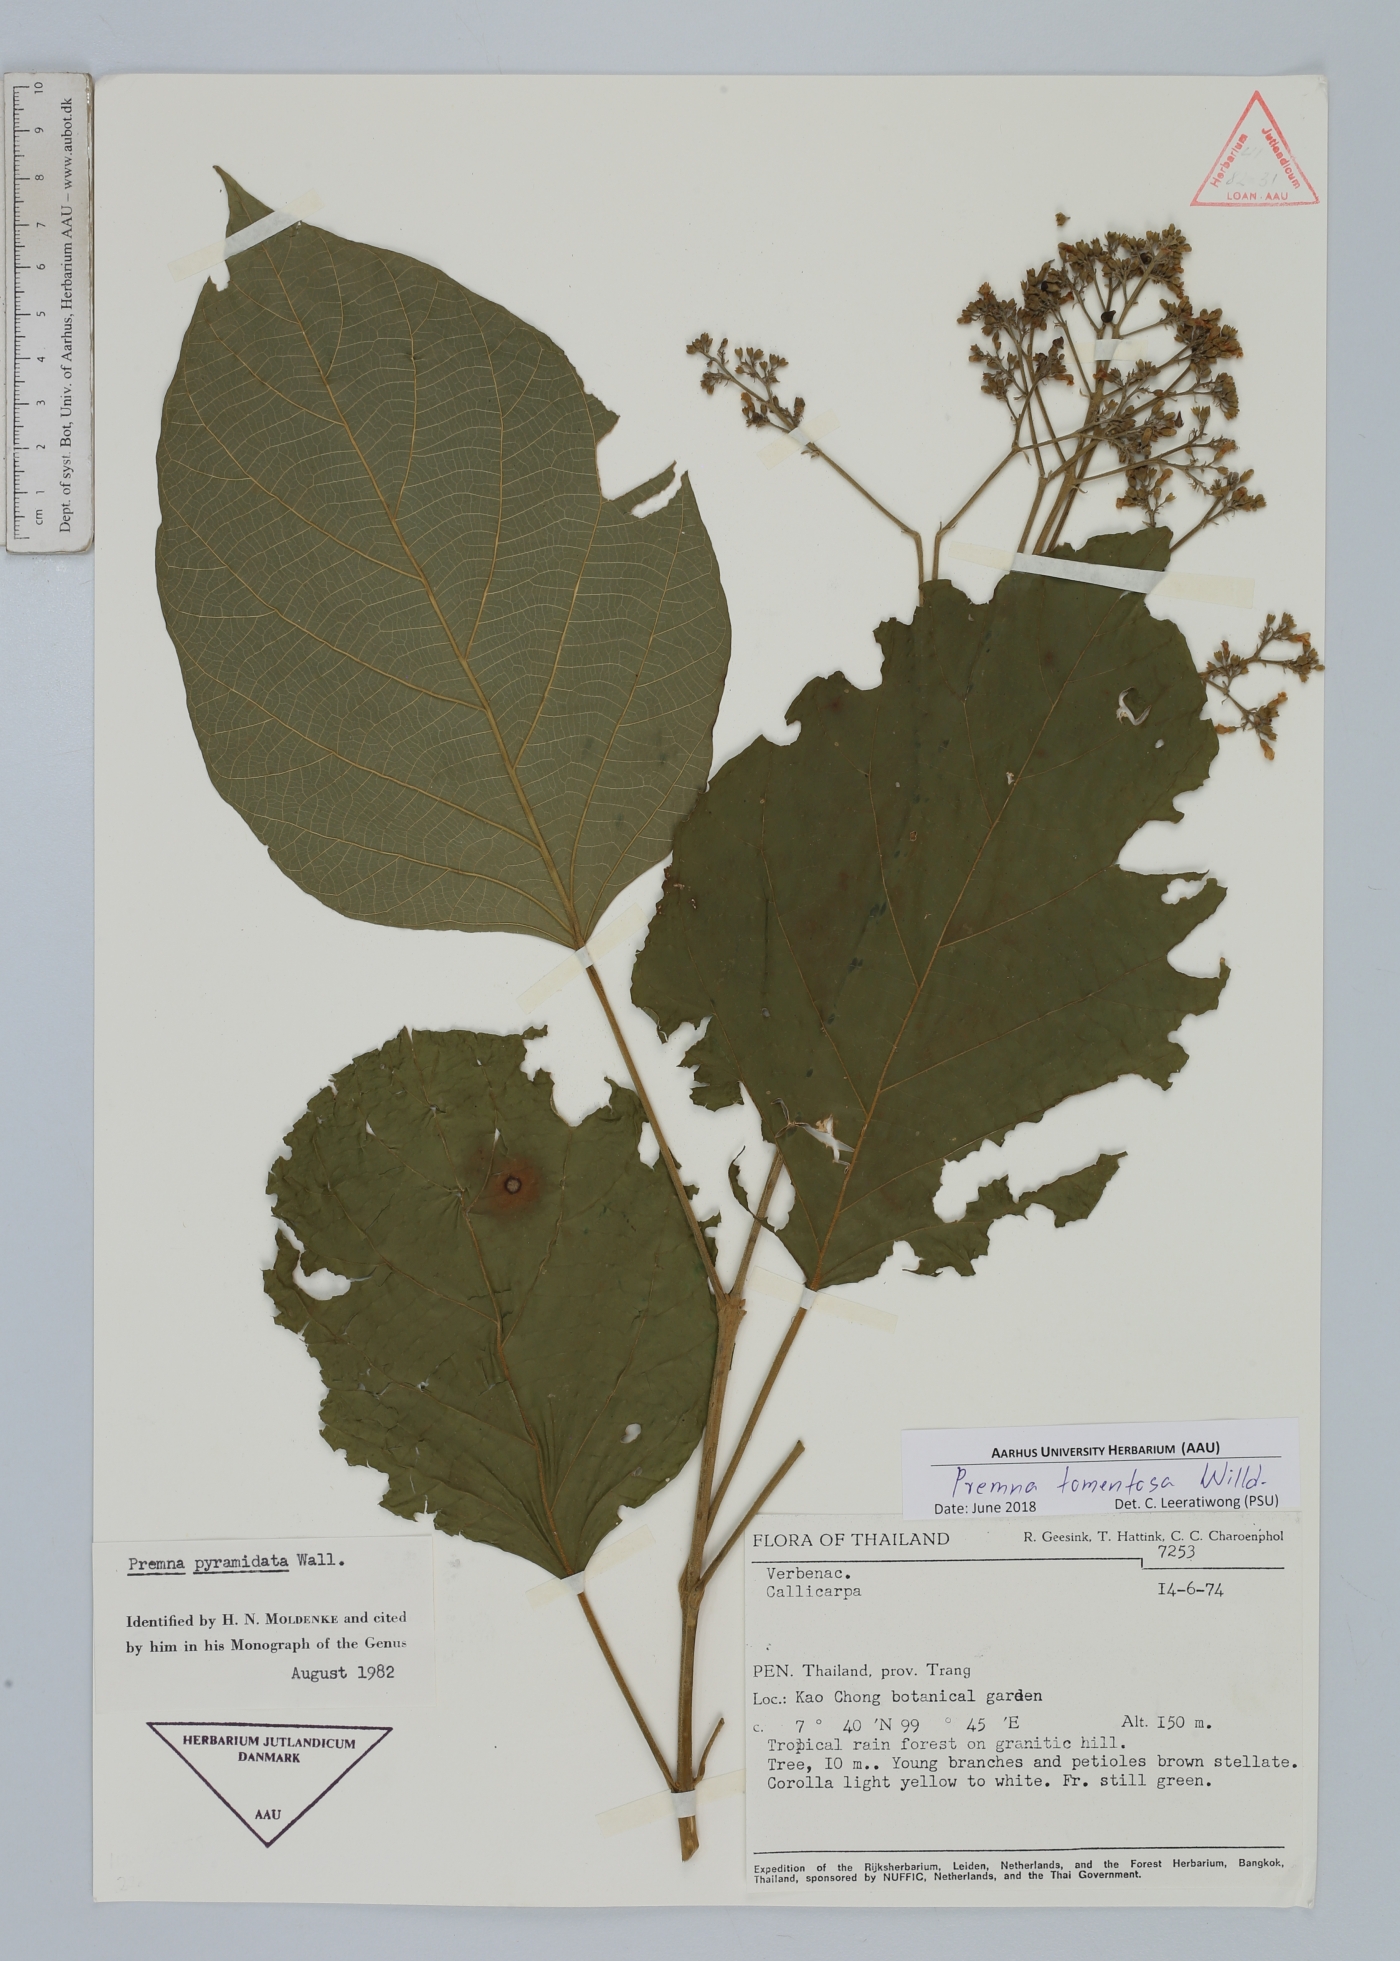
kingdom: Plantae
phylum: Tracheophyta
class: Magnoliopsida
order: Lamiales
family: Lamiaceae
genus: Premna
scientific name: Premna tomentosa
